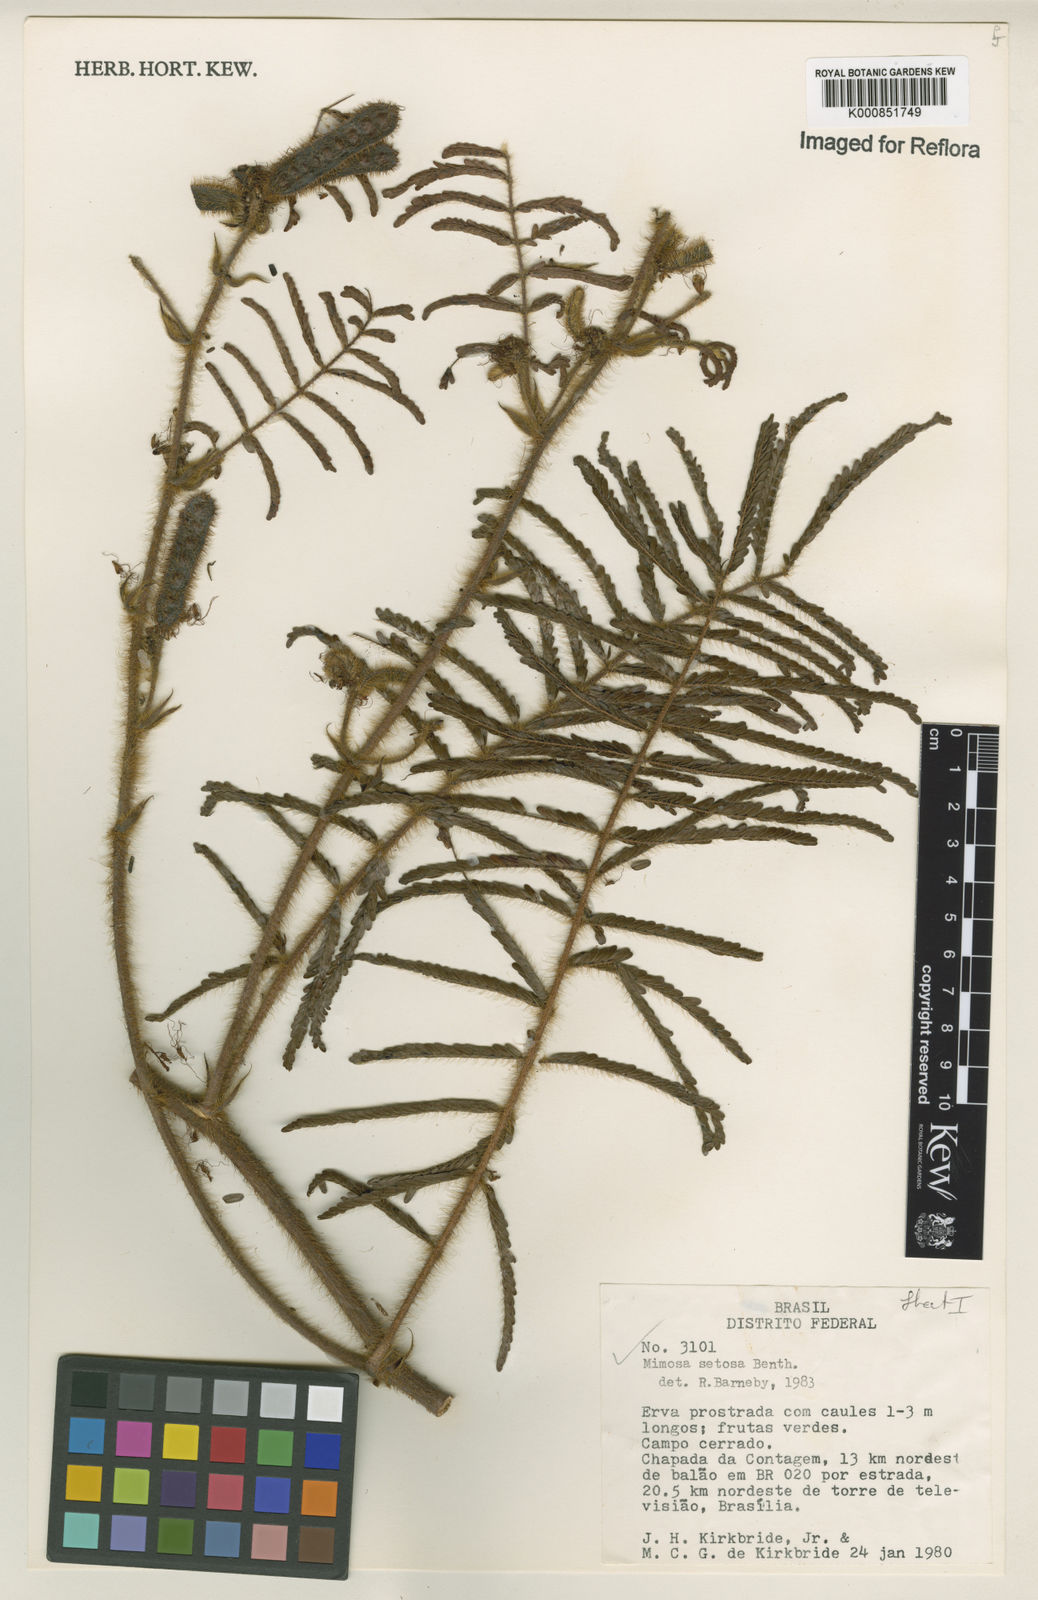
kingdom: Plantae
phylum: Tracheophyta
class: Magnoliopsida
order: Fabales
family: Fabaceae
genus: Mimosa
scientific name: Mimosa setosa
